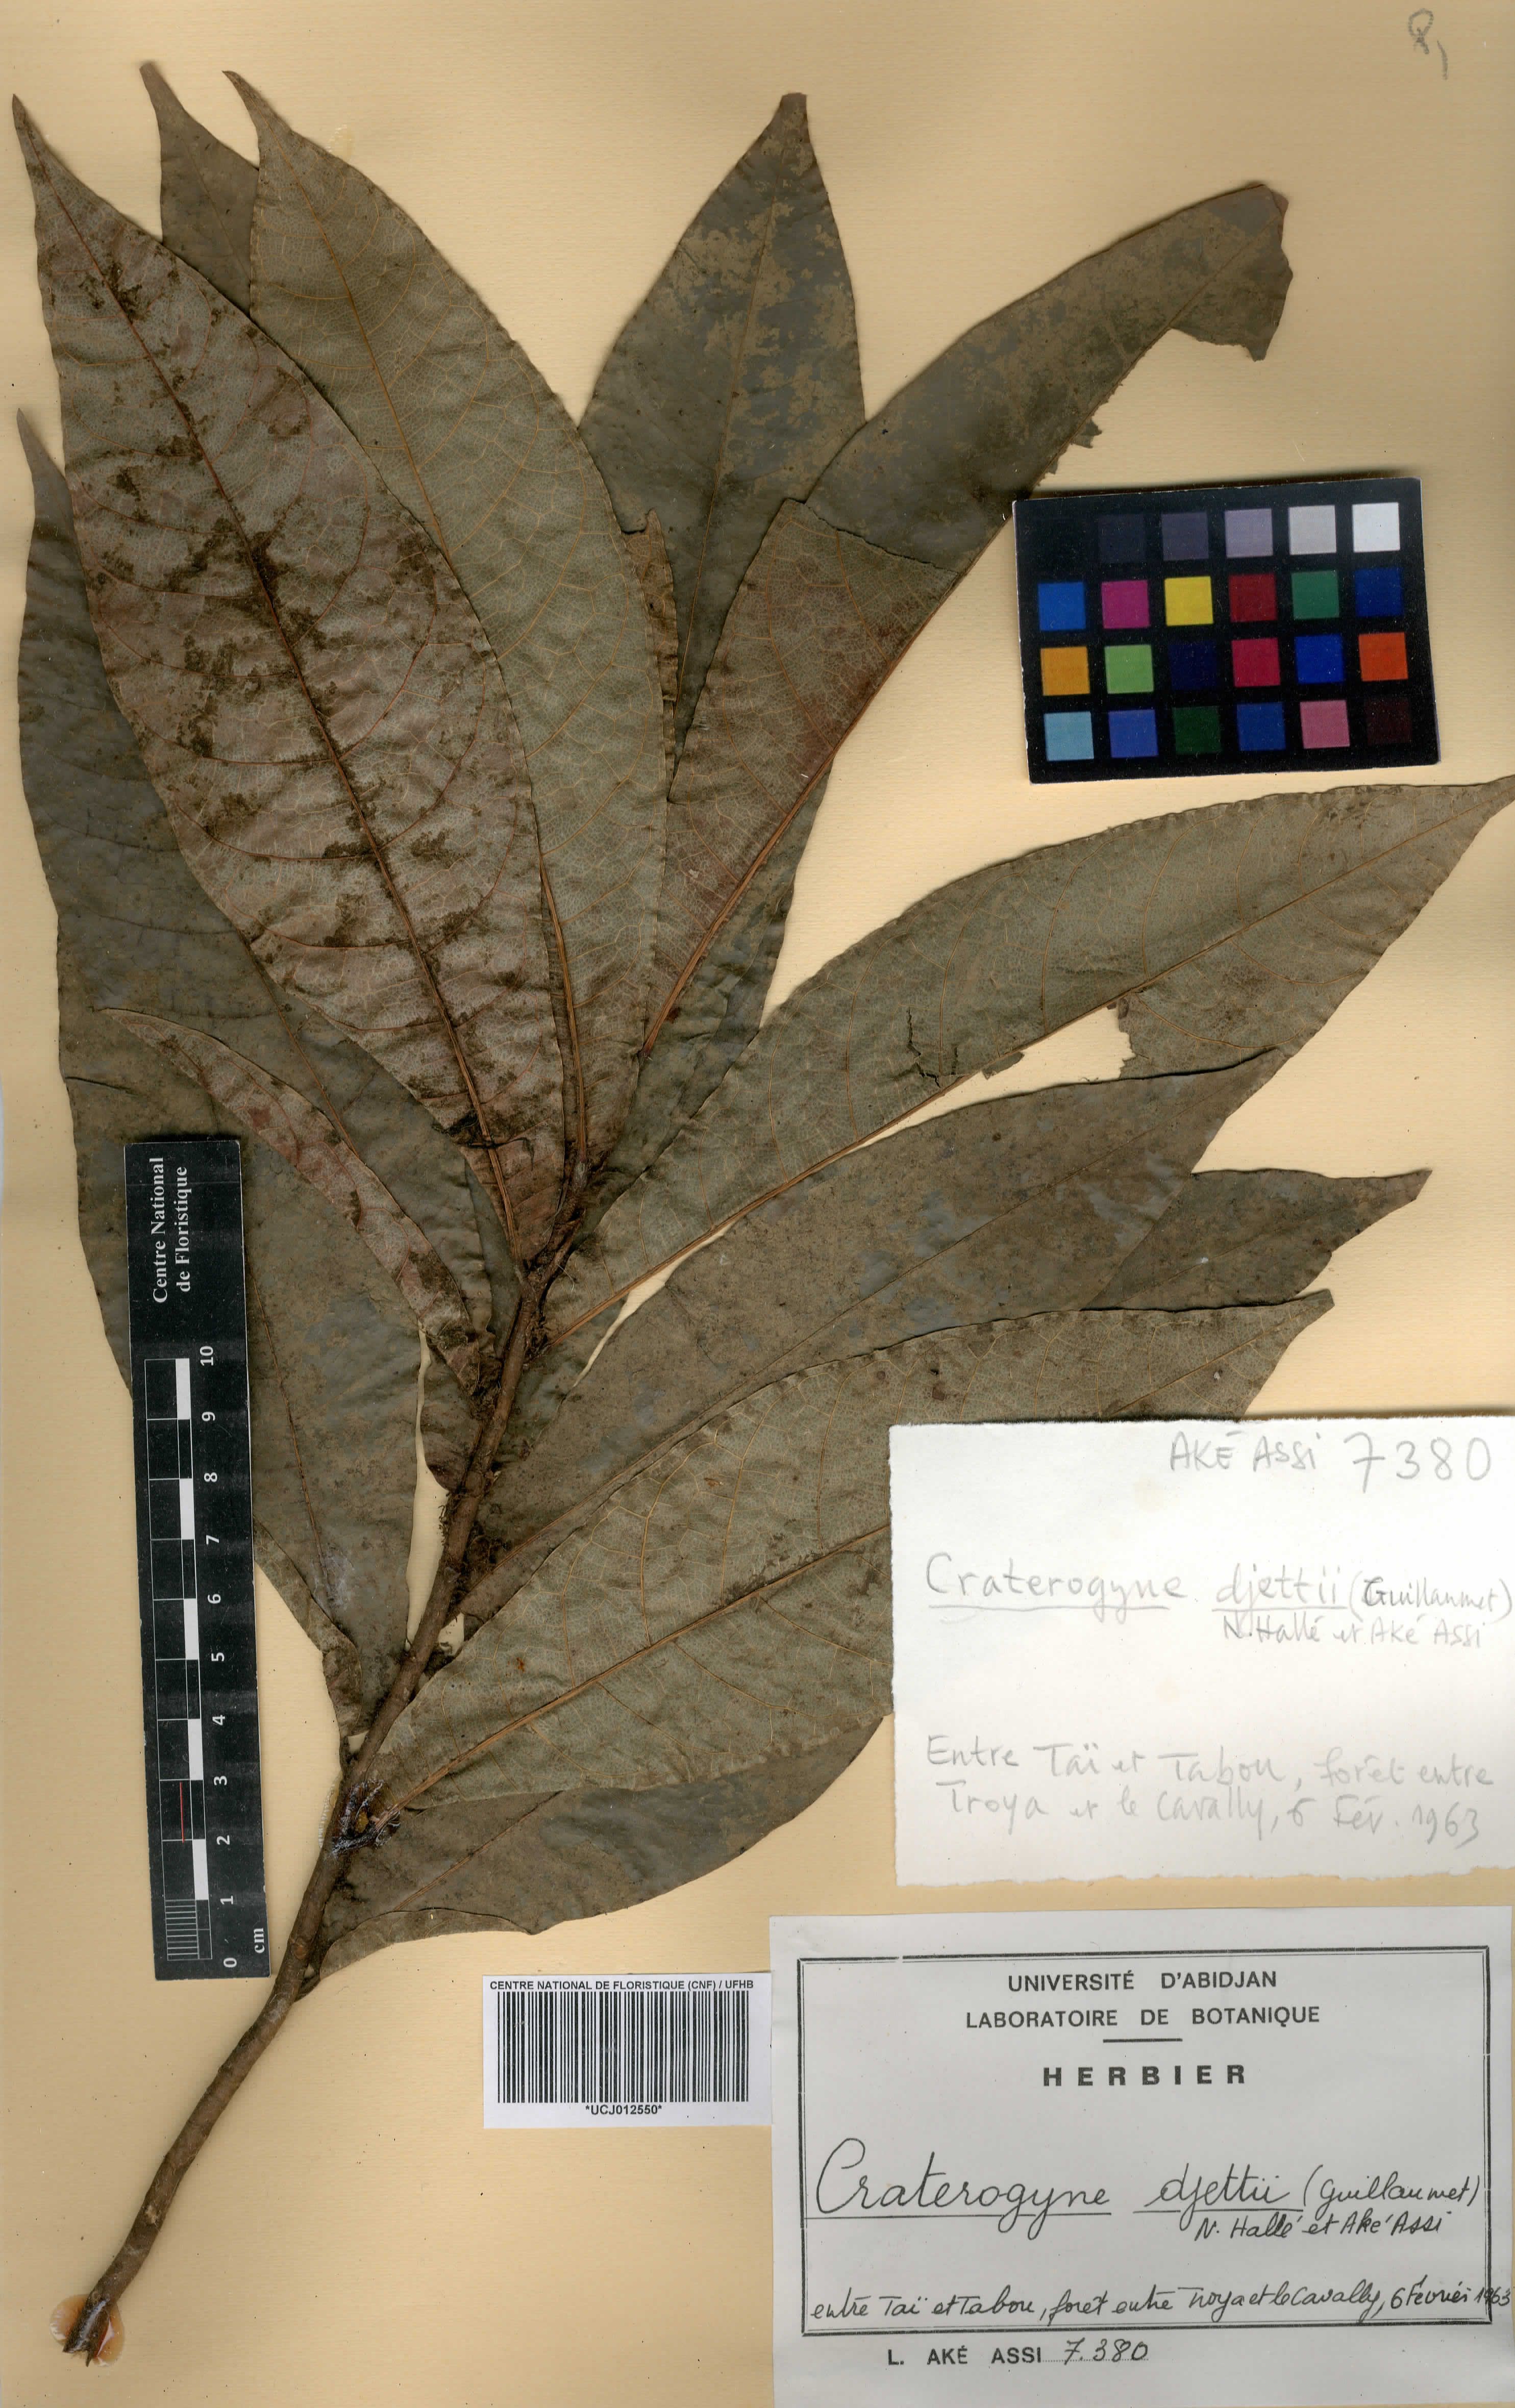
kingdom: Plantae
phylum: Tracheophyta
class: Magnoliopsida
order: Rosales
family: Moraceae
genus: Dorstenia
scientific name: Dorstenia djettii
